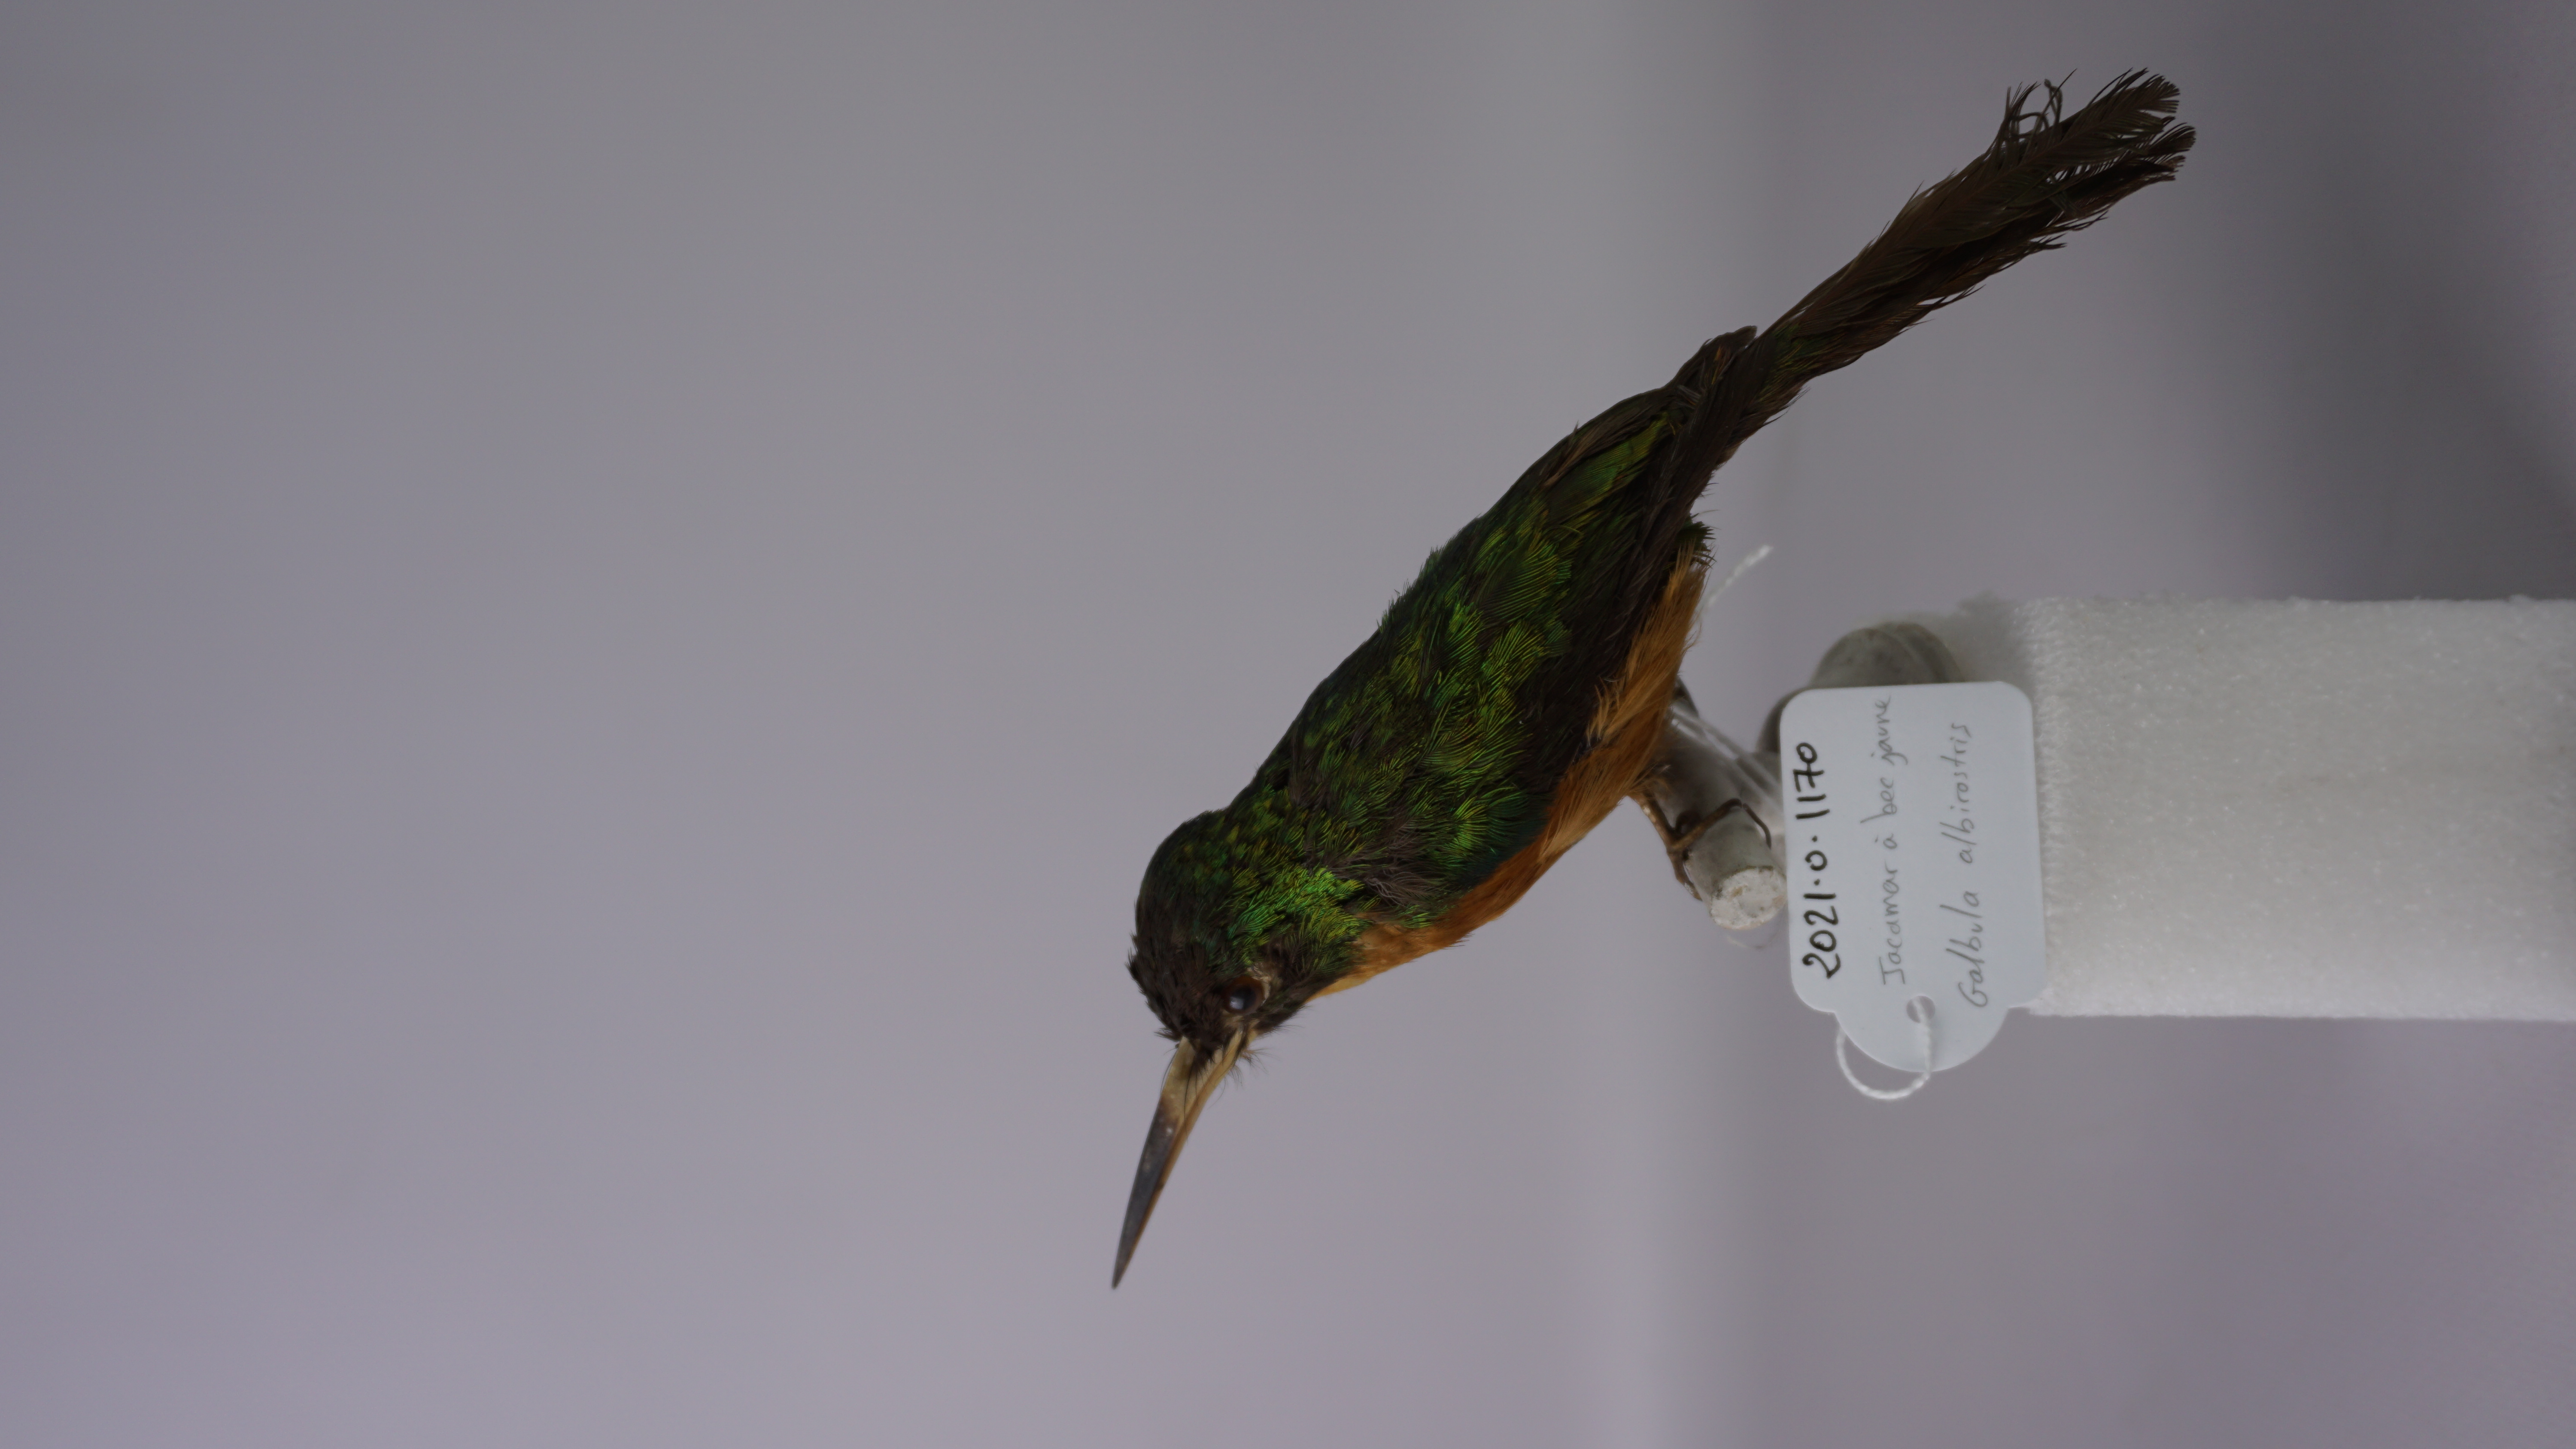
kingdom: Animalia
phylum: Chordata
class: Aves
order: Piciformes
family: Galbulidae
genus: Galbula
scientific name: Galbula albirostris
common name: Yellow-billed jacamar
